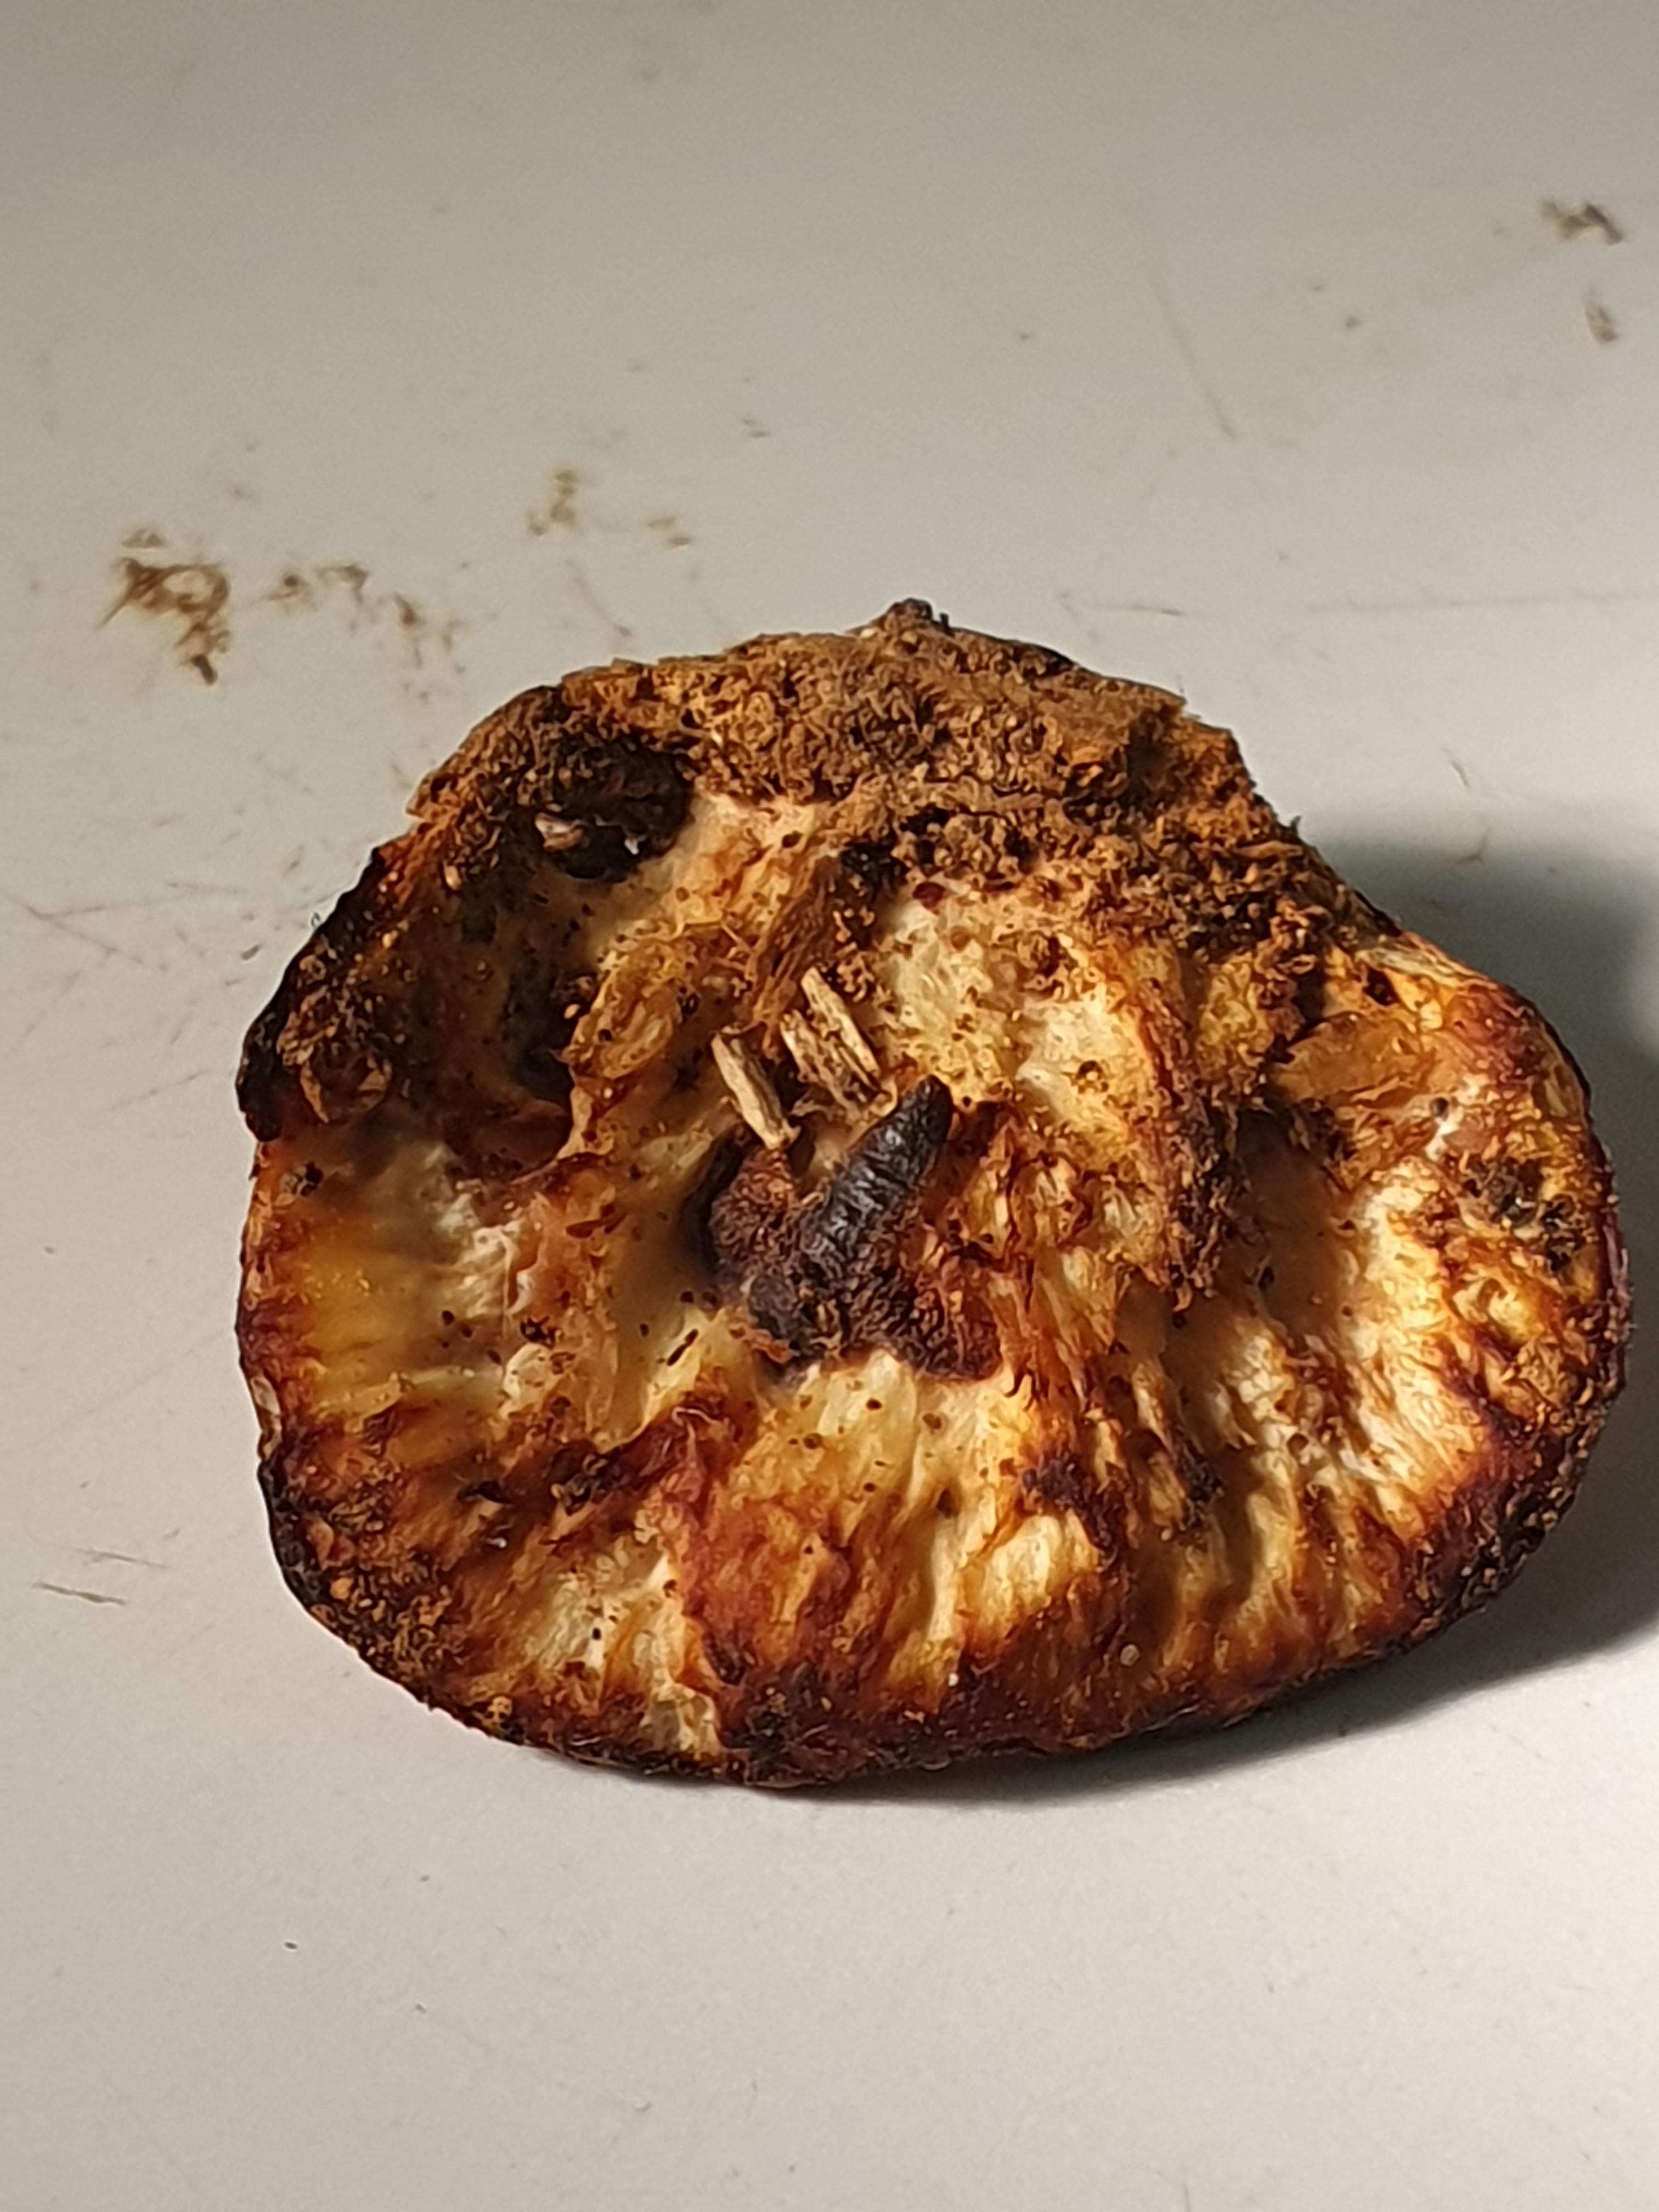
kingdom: Fungi
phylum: Basidiomycota
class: Agaricomycetes
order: Polyporales
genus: Fuscopostia
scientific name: Fuscopostia fragilis
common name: brunende kødporesvamp
